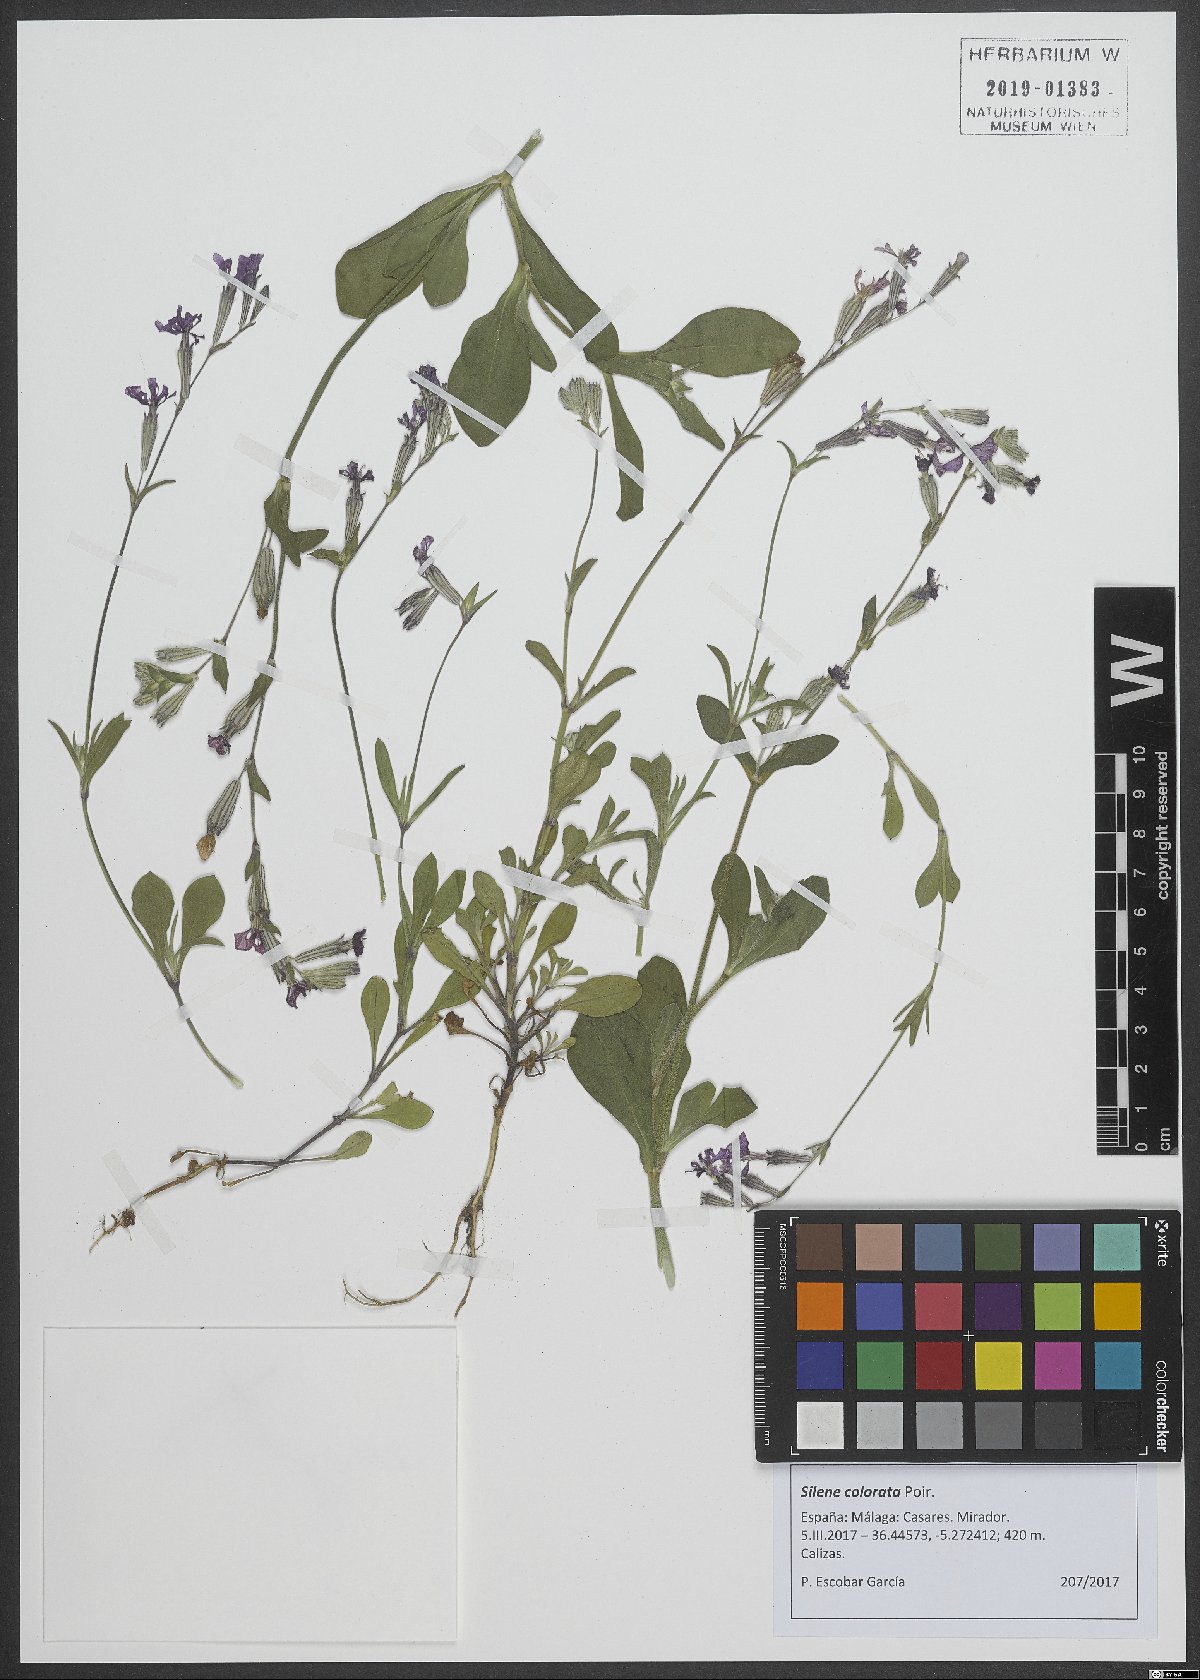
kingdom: Plantae
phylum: Tracheophyta
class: Magnoliopsida
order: Caryophyllales
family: Caryophyllaceae
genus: Silene
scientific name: Silene colorata
